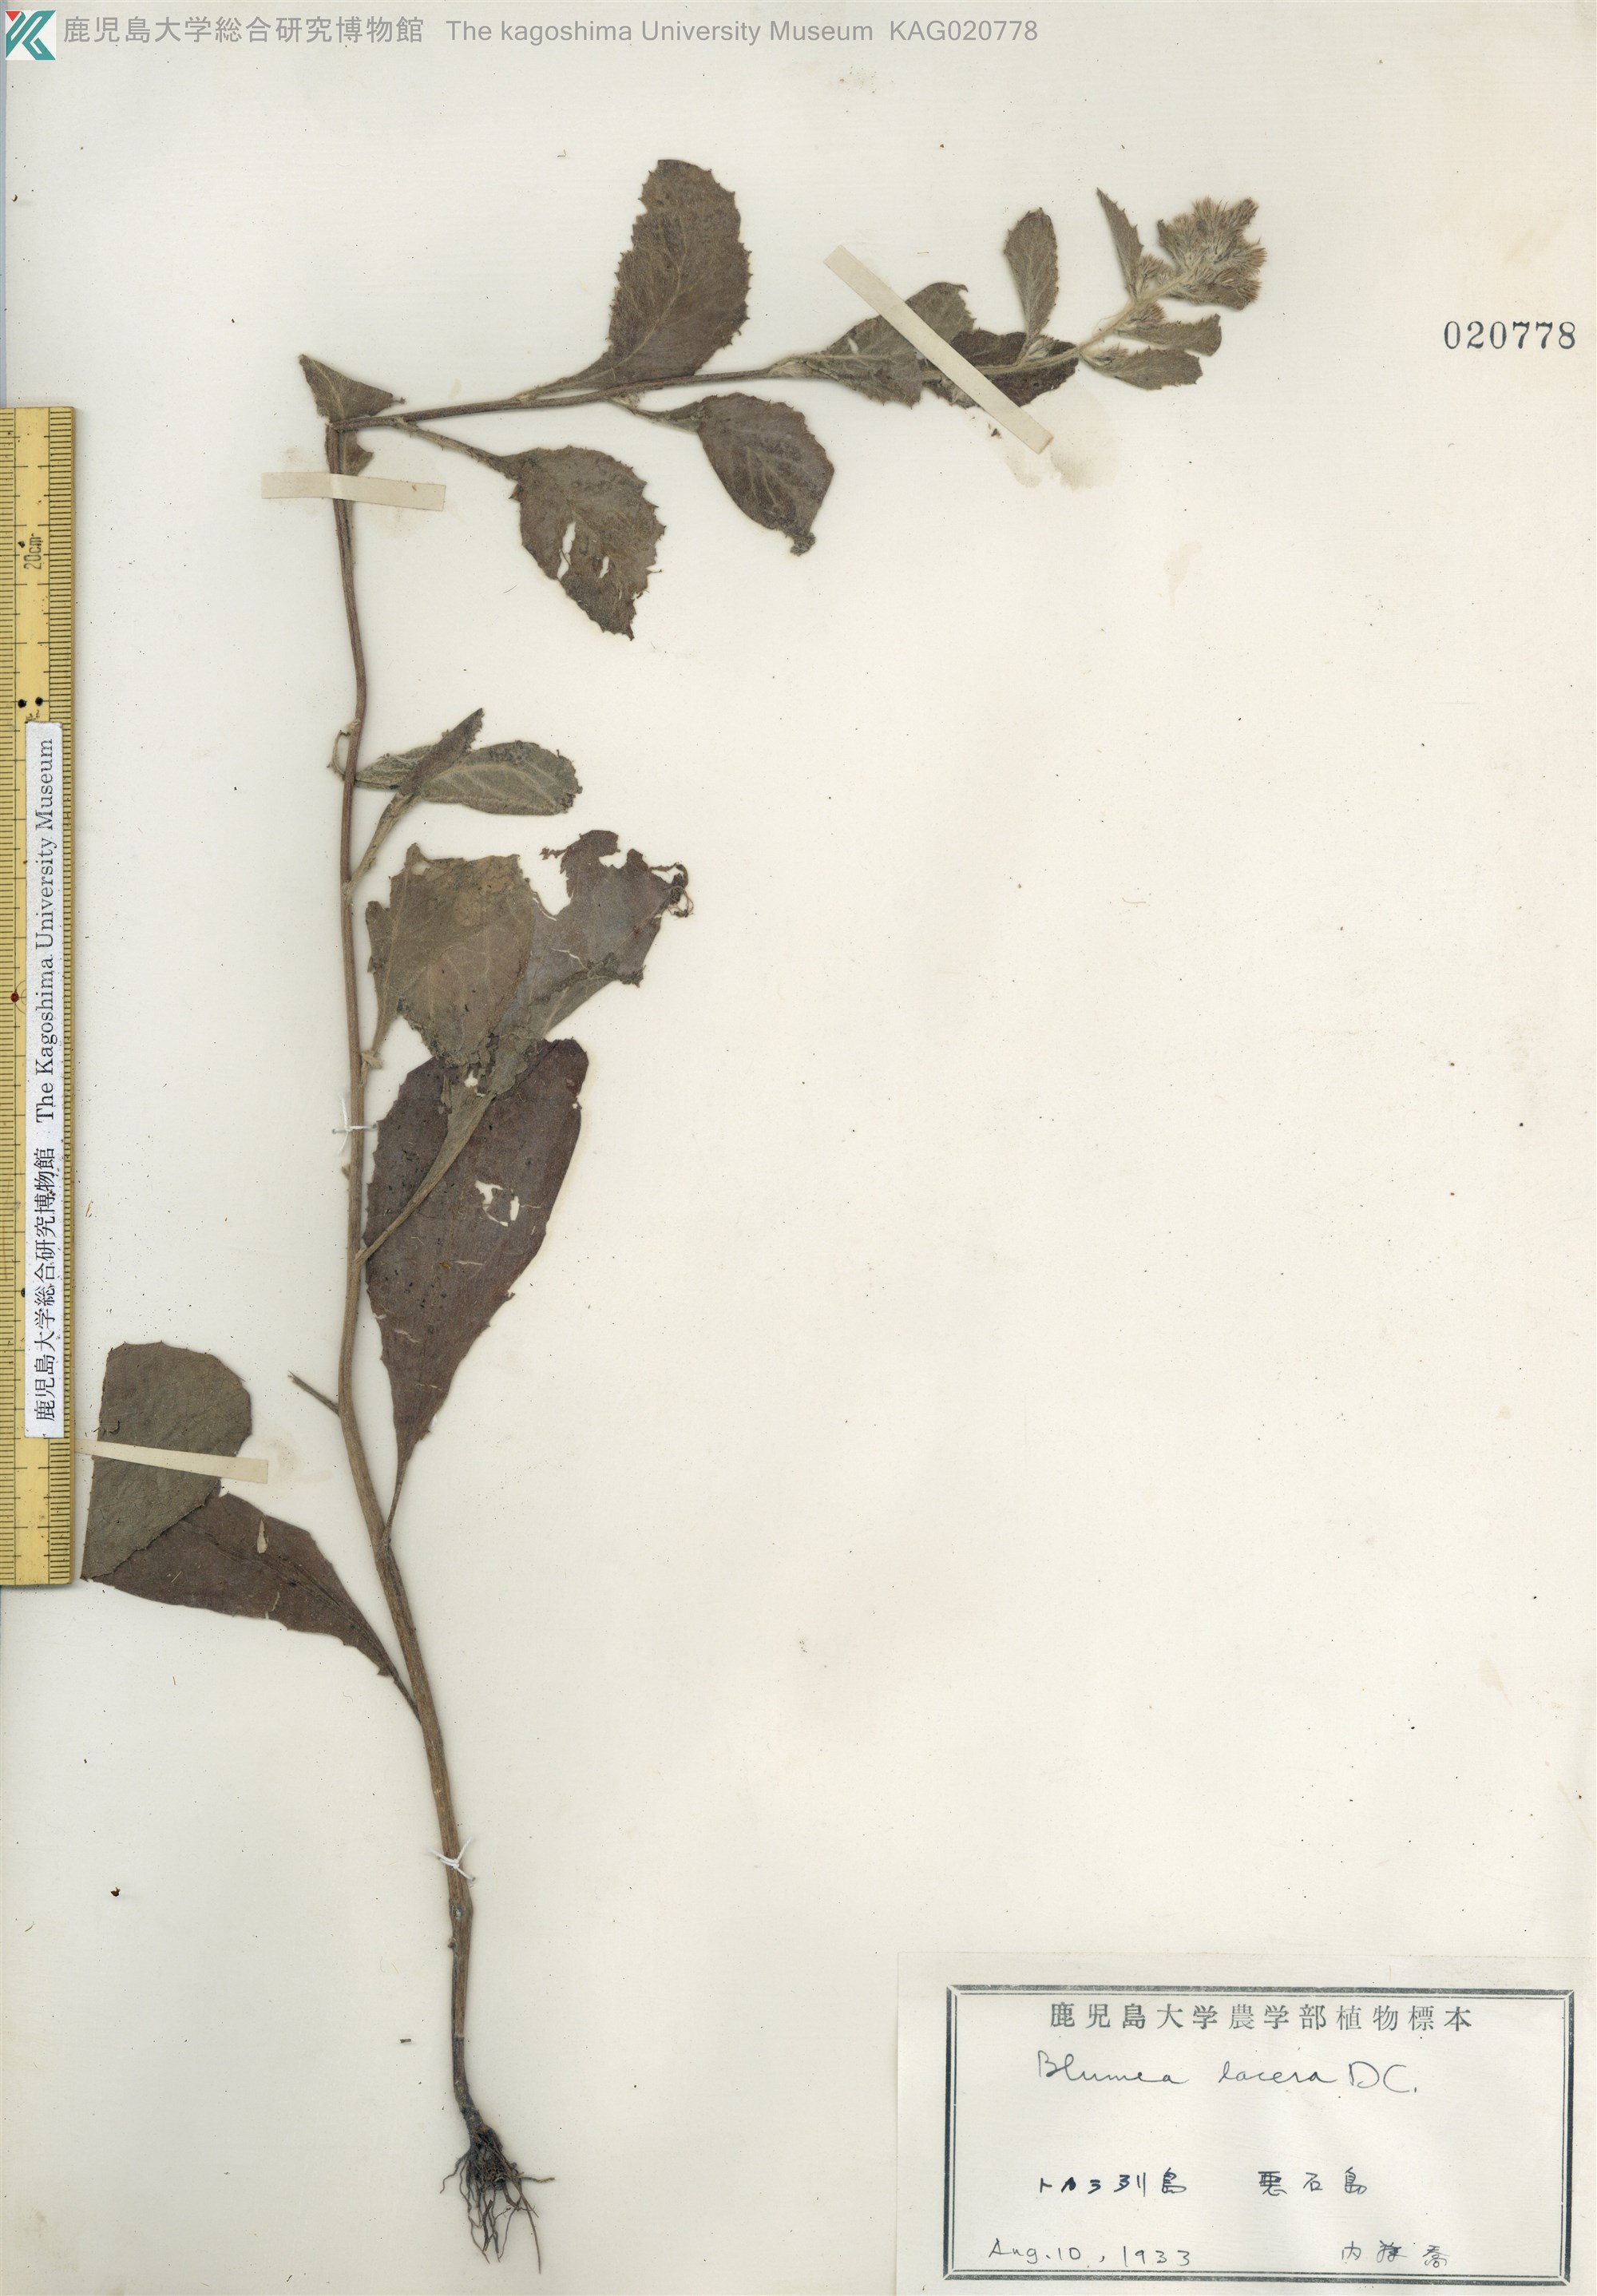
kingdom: Plantae
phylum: Tracheophyta
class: Magnoliopsida
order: Asterales
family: Asteraceae
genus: Blumea
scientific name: Blumea lacera
